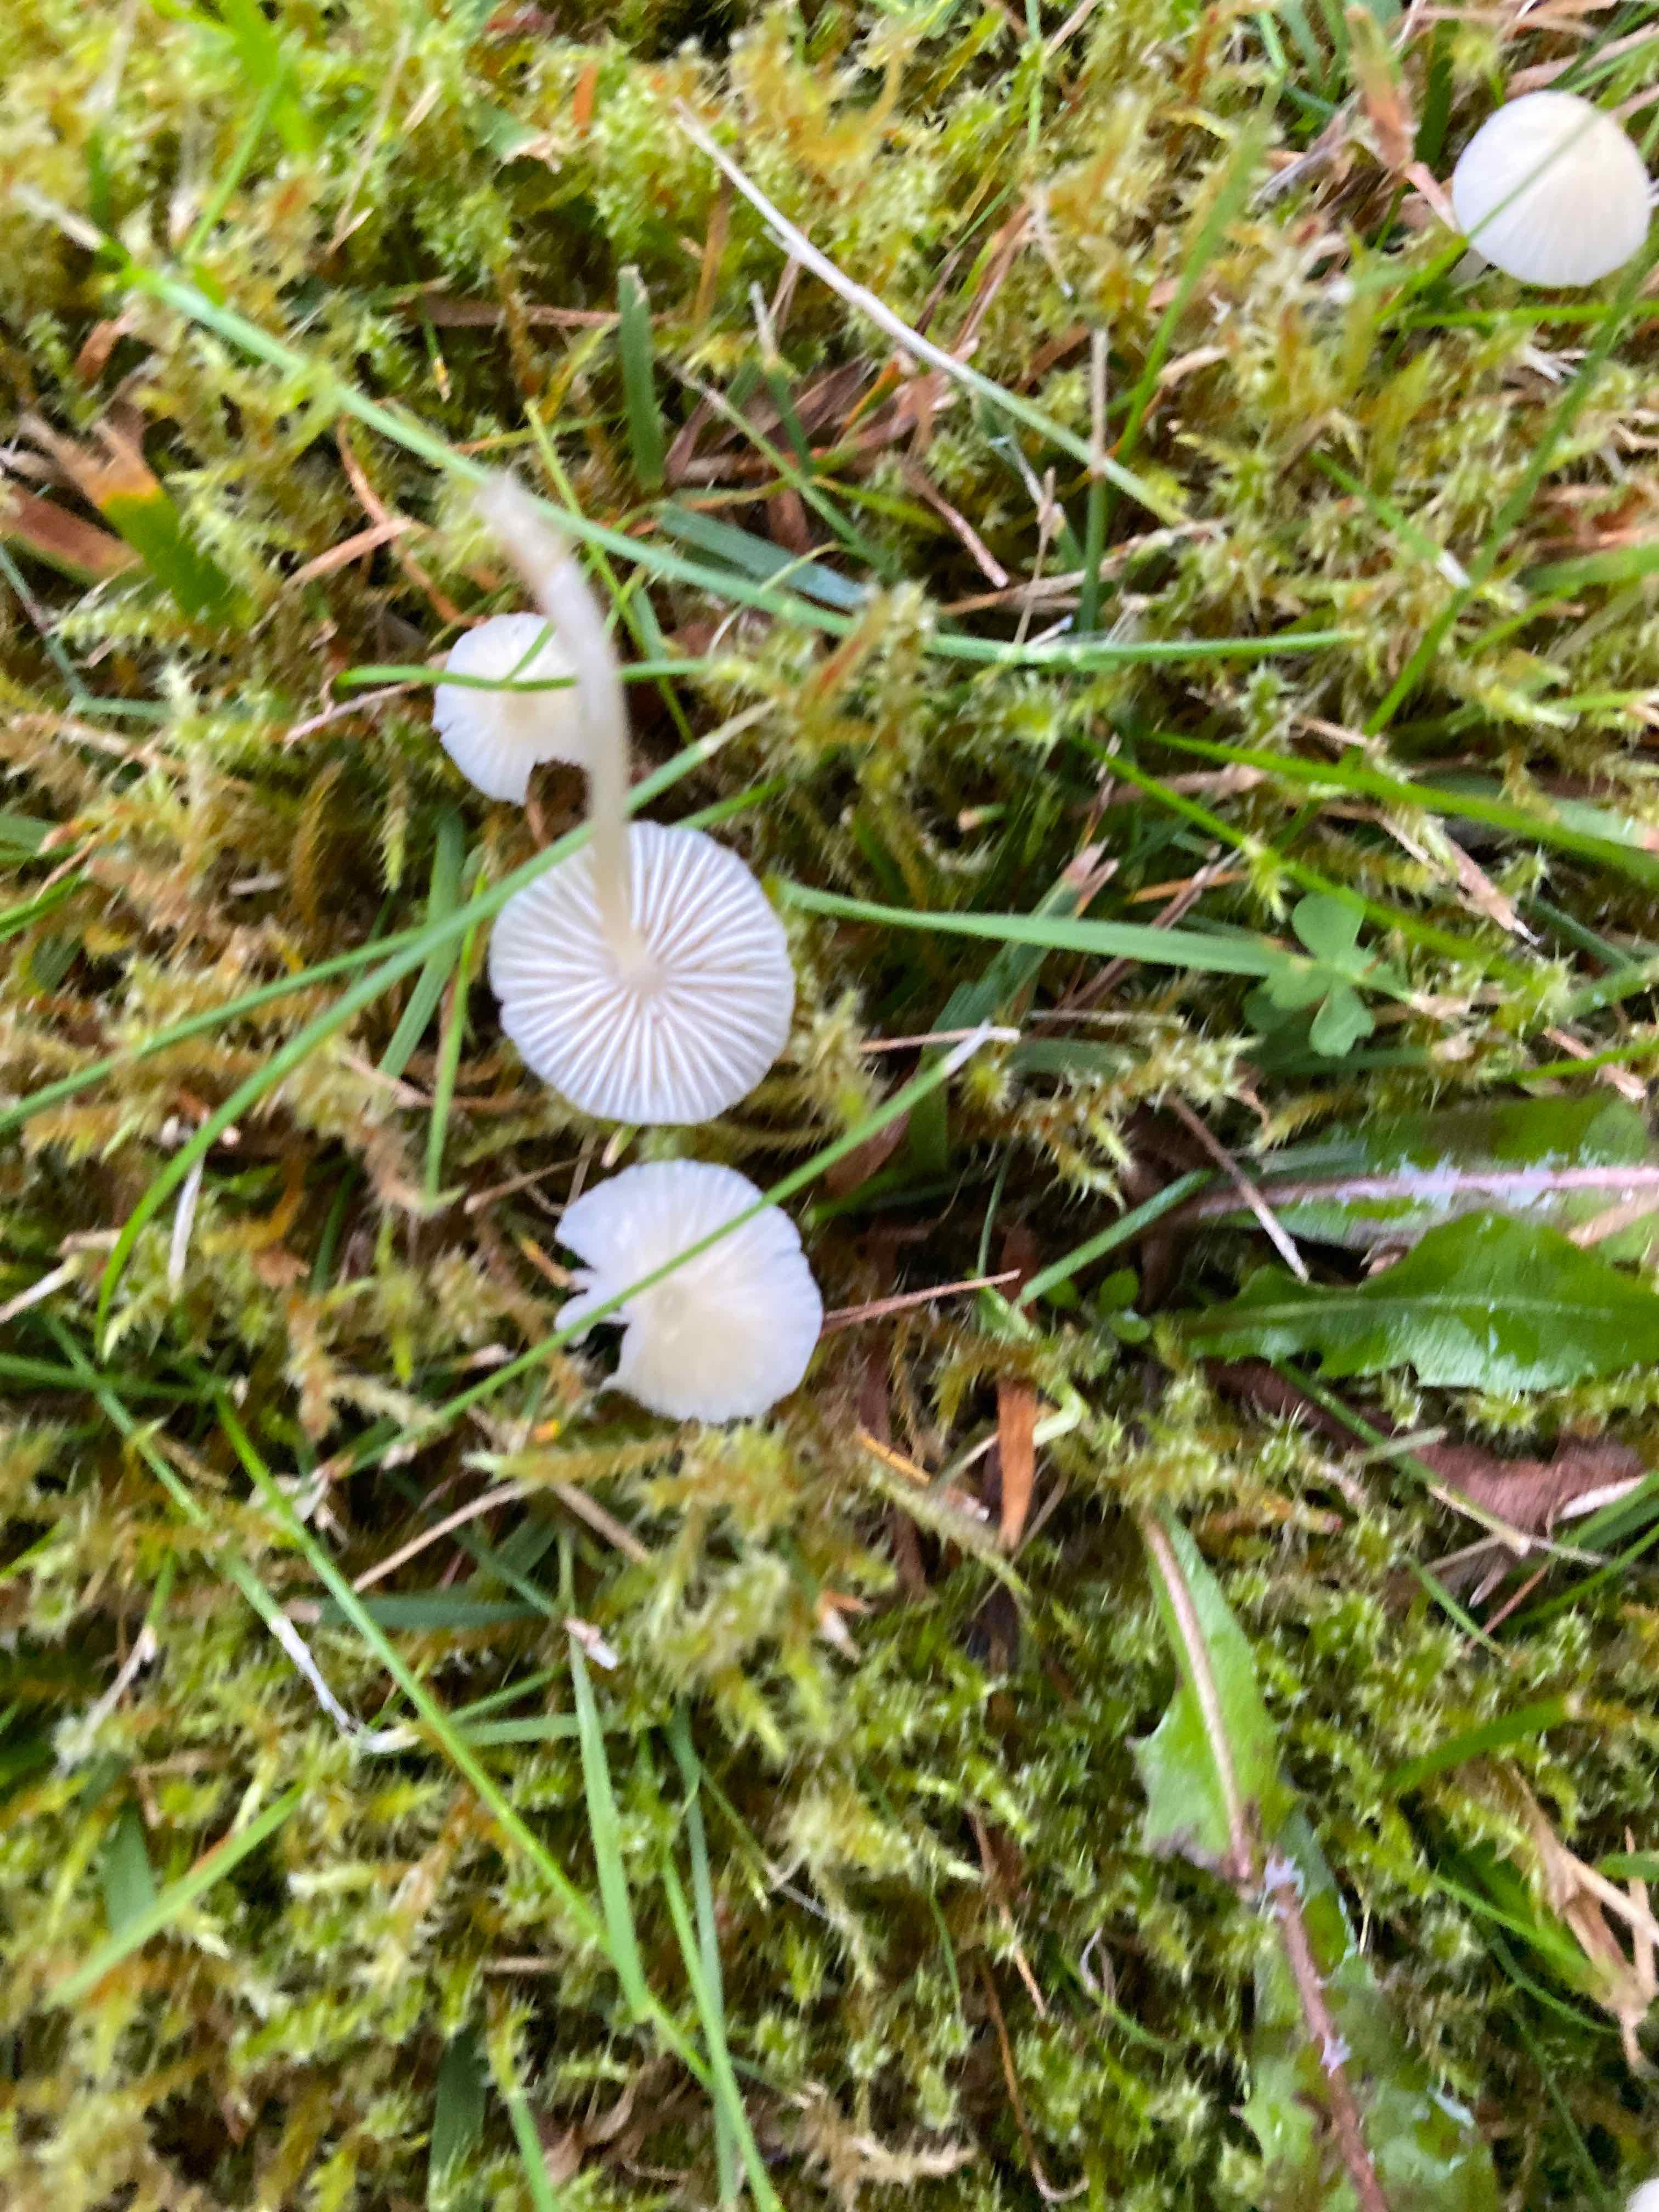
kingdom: Fungi
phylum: Basidiomycota
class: Agaricomycetes
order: Agaricales
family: Mycenaceae
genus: Atheniella
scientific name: Atheniella
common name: huesvamp
